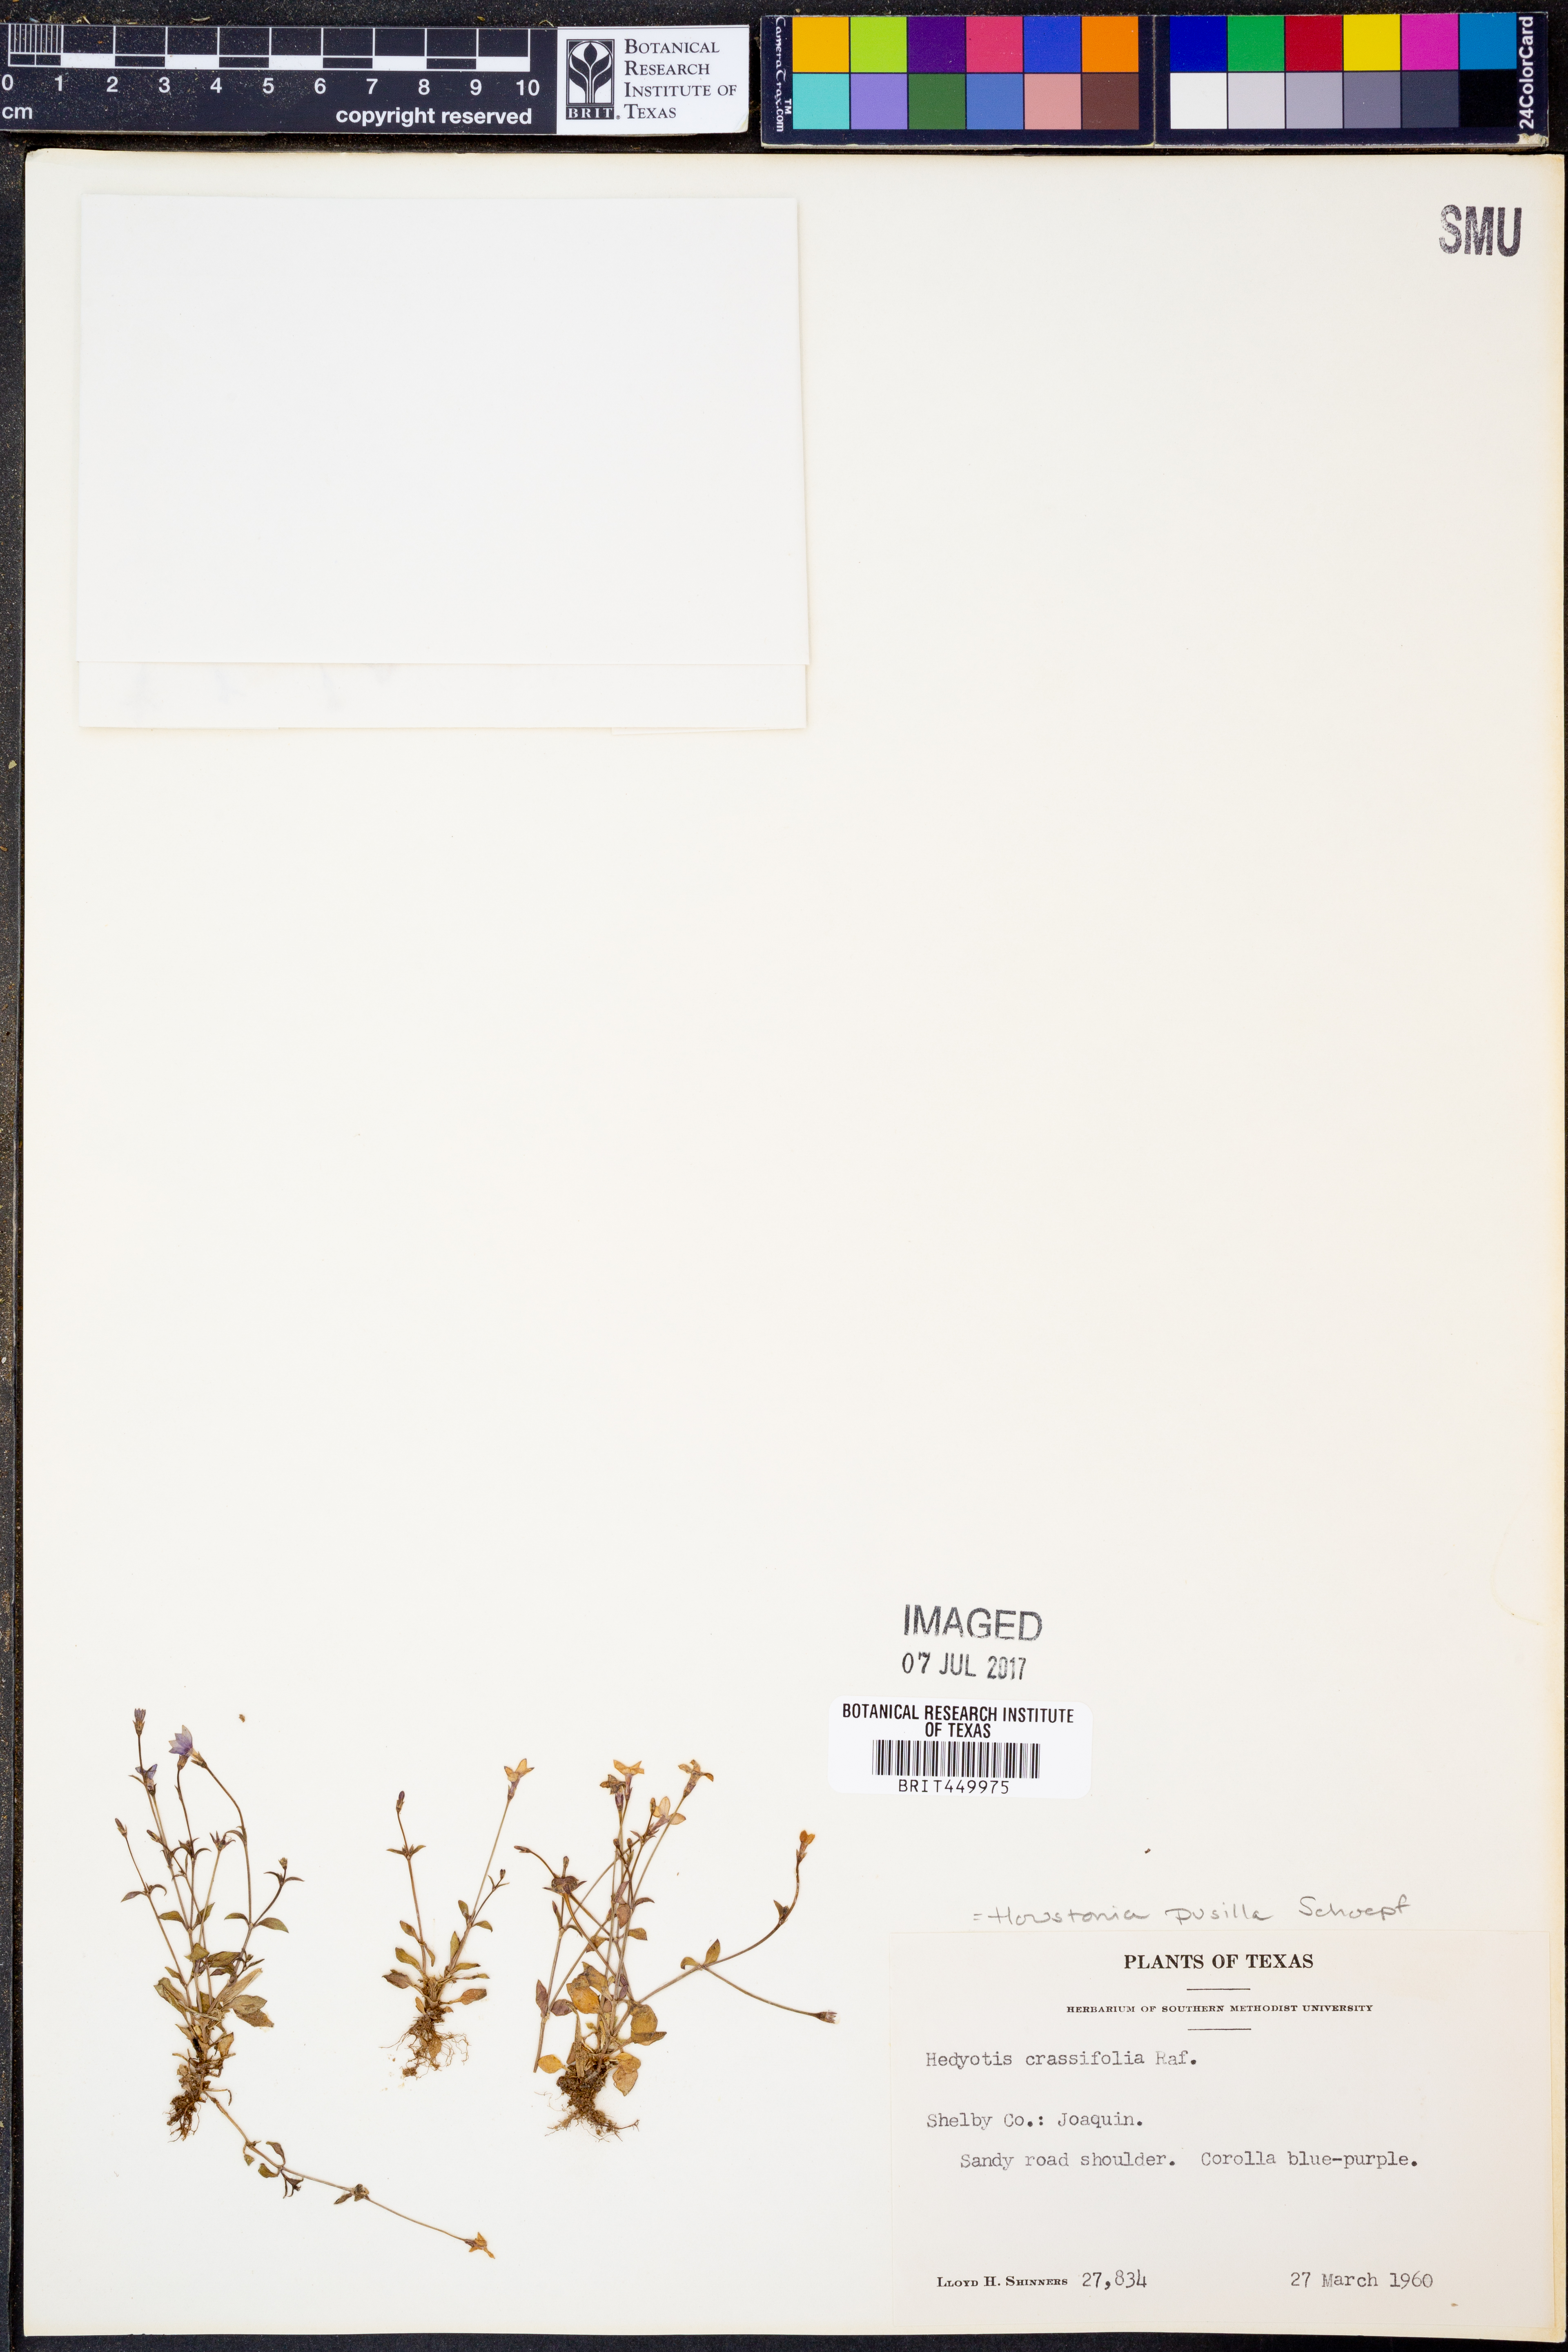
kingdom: Plantae
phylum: Tracheophyta
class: Magnoliopsida
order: Gentianales
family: Rubiaceae
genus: Houstonia
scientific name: Houstonia pusilla
